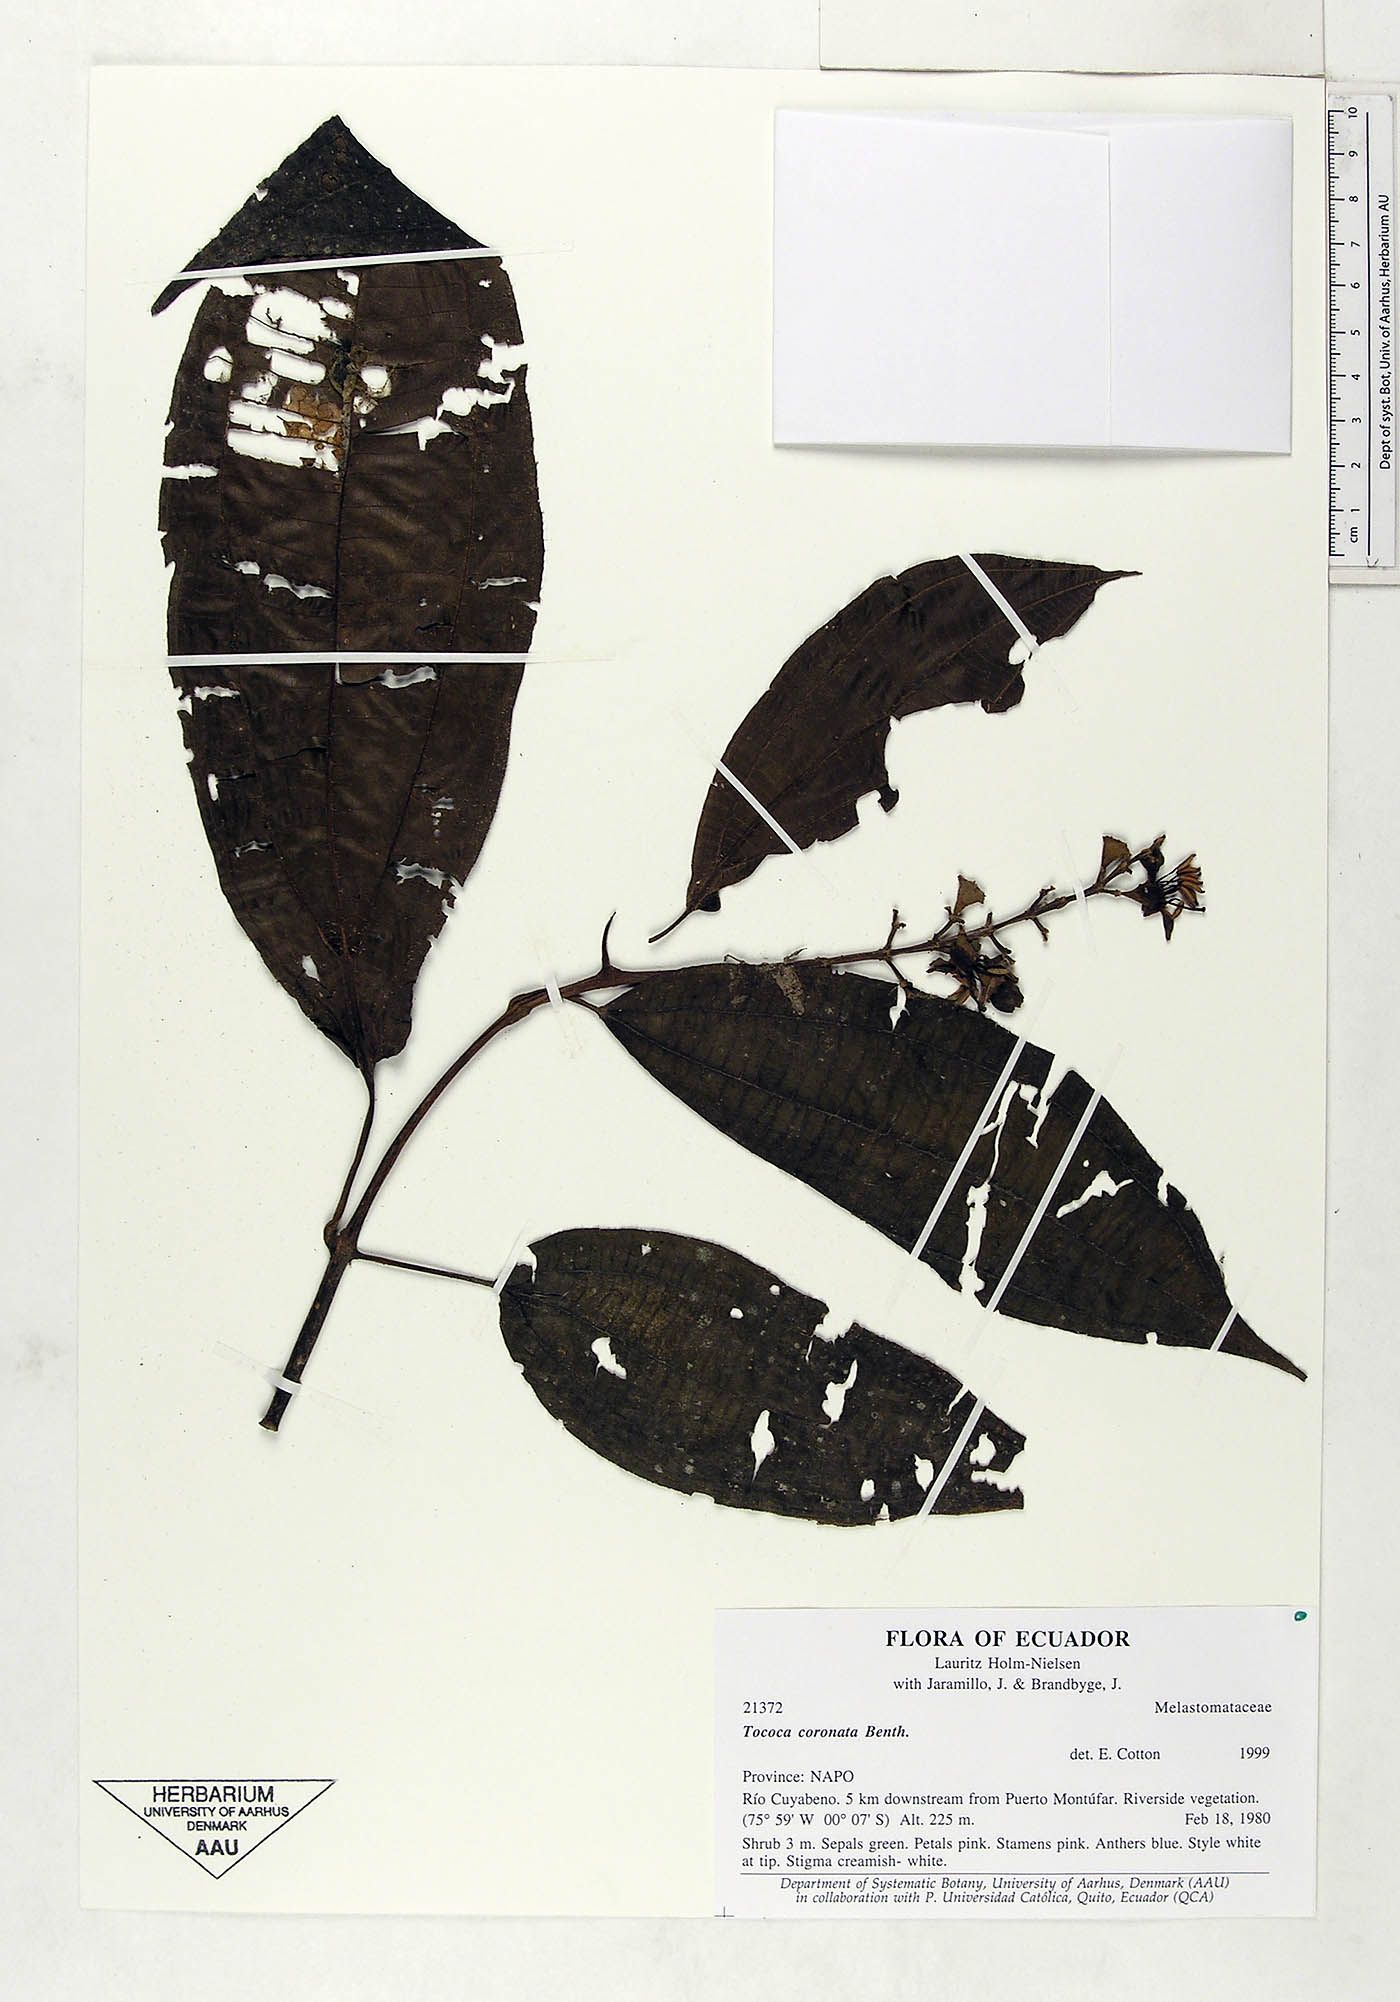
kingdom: Plantae
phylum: Tracheophyta
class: Magnoliopsida
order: Myrtales
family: Melastomataceae
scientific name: Melastomataceae
